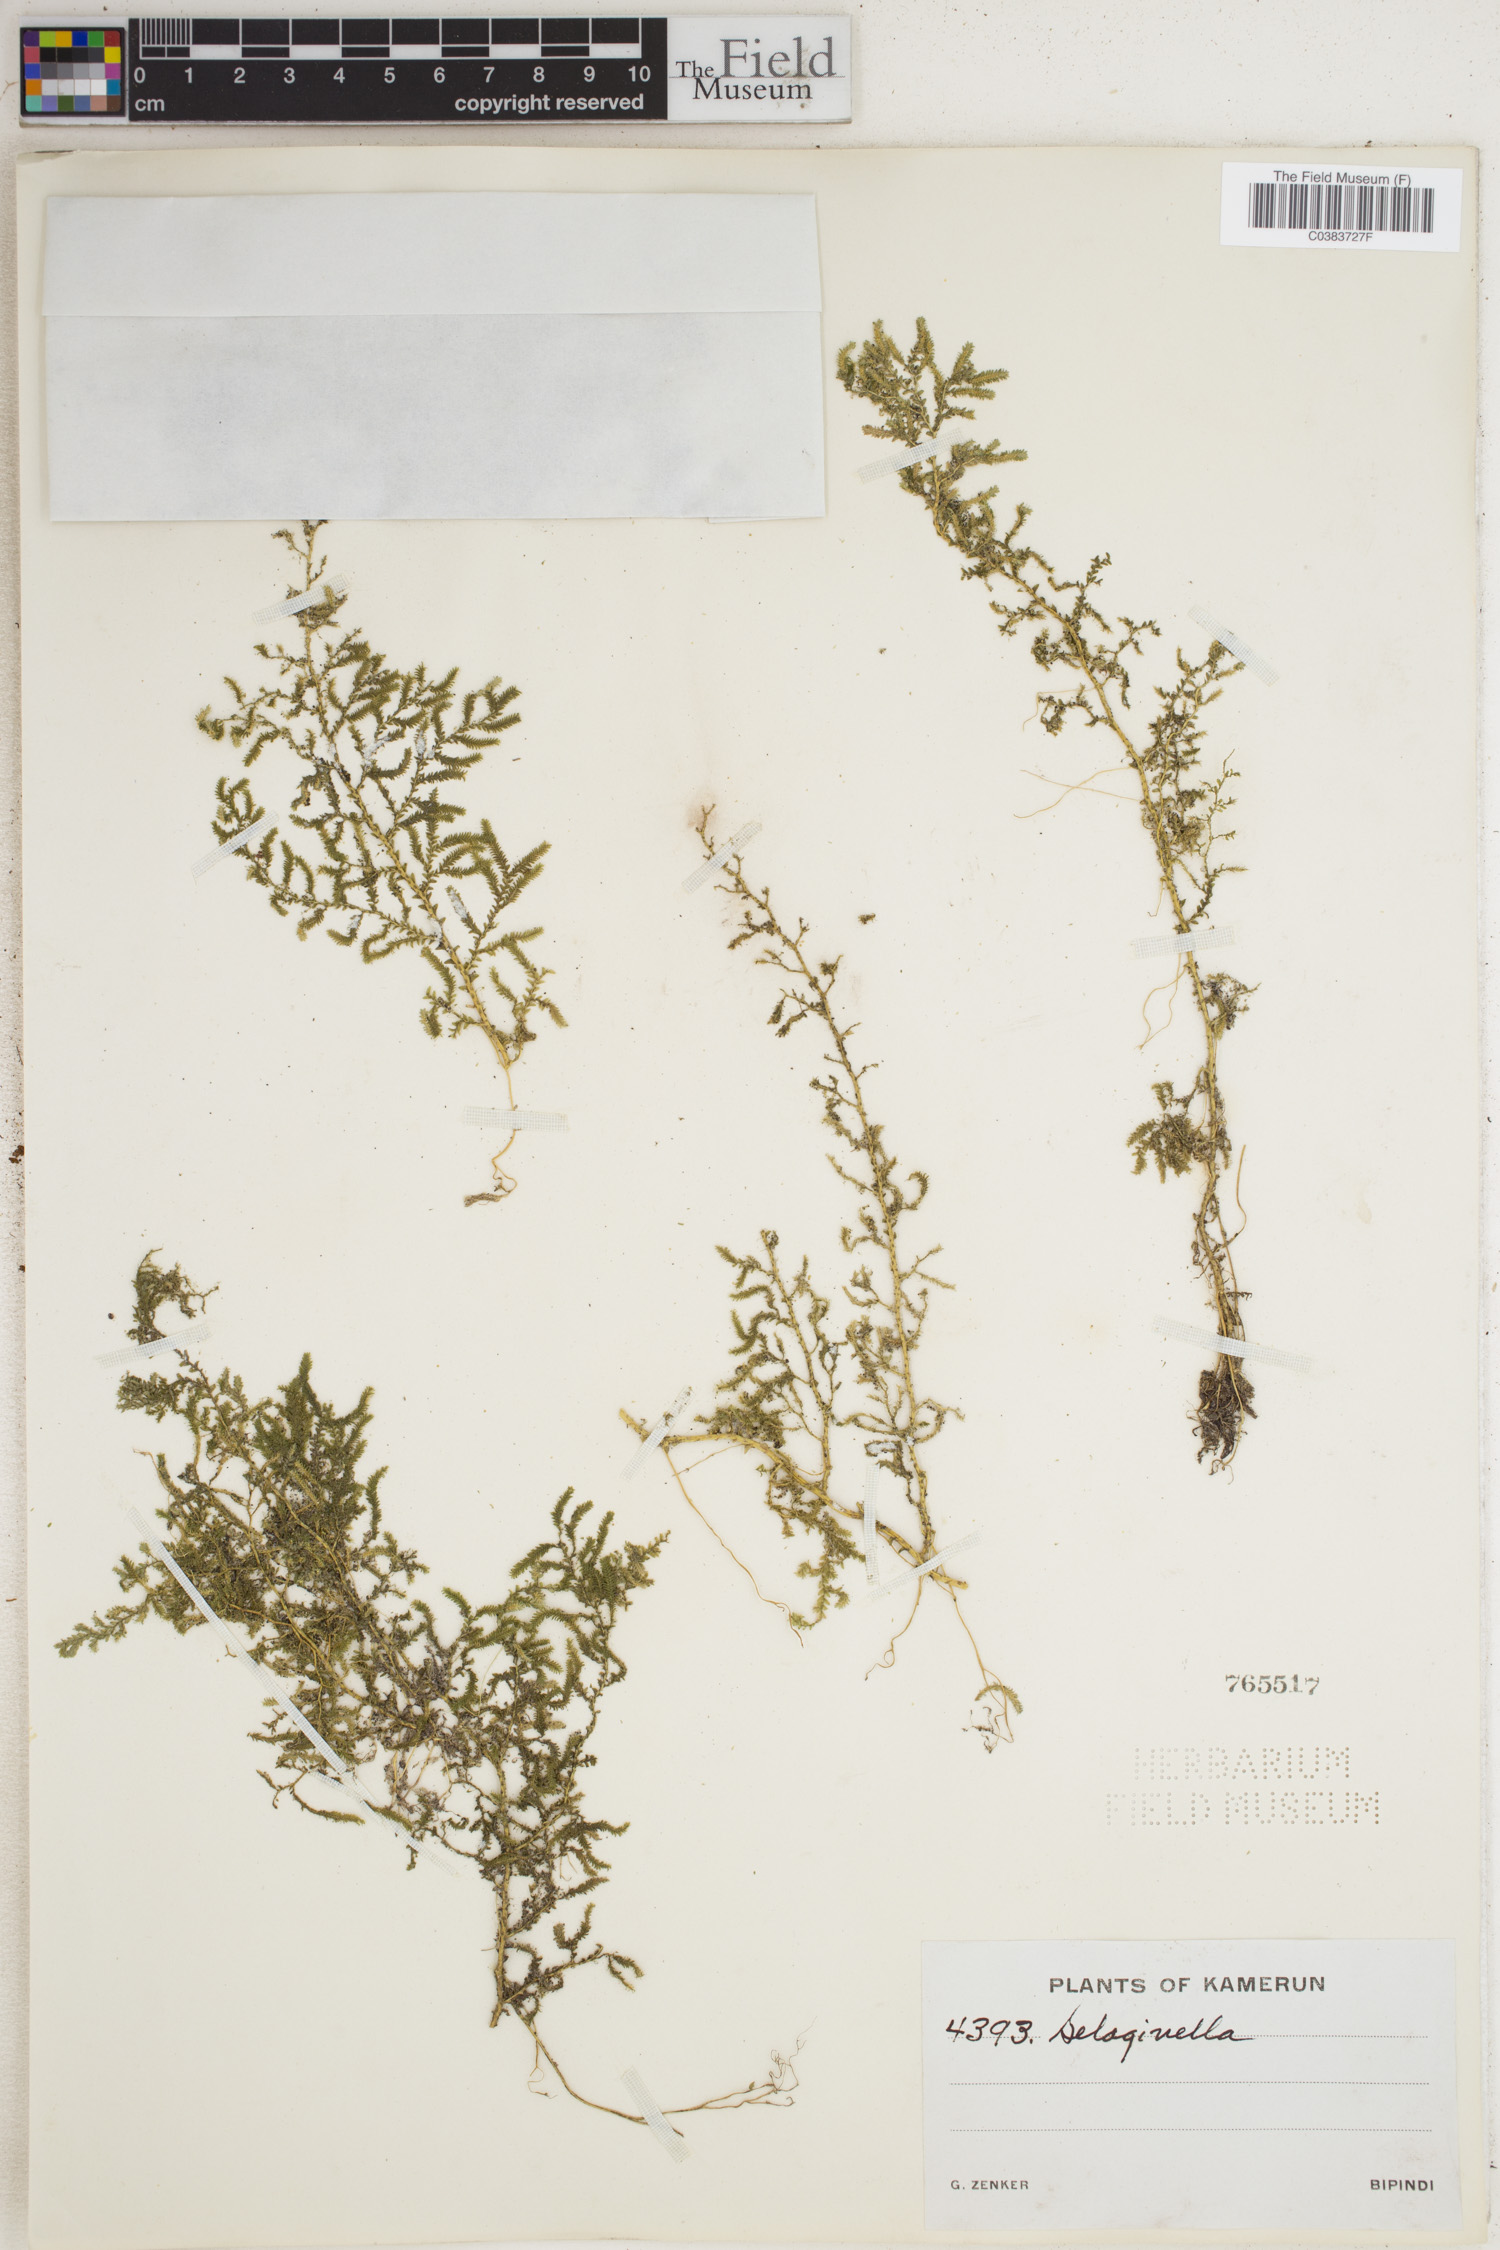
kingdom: Plantae
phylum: Tracheophyta
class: Lycopodiopsida
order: Selaginellales
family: Selaginellaceae
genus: Selaginella
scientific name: Selaginella
